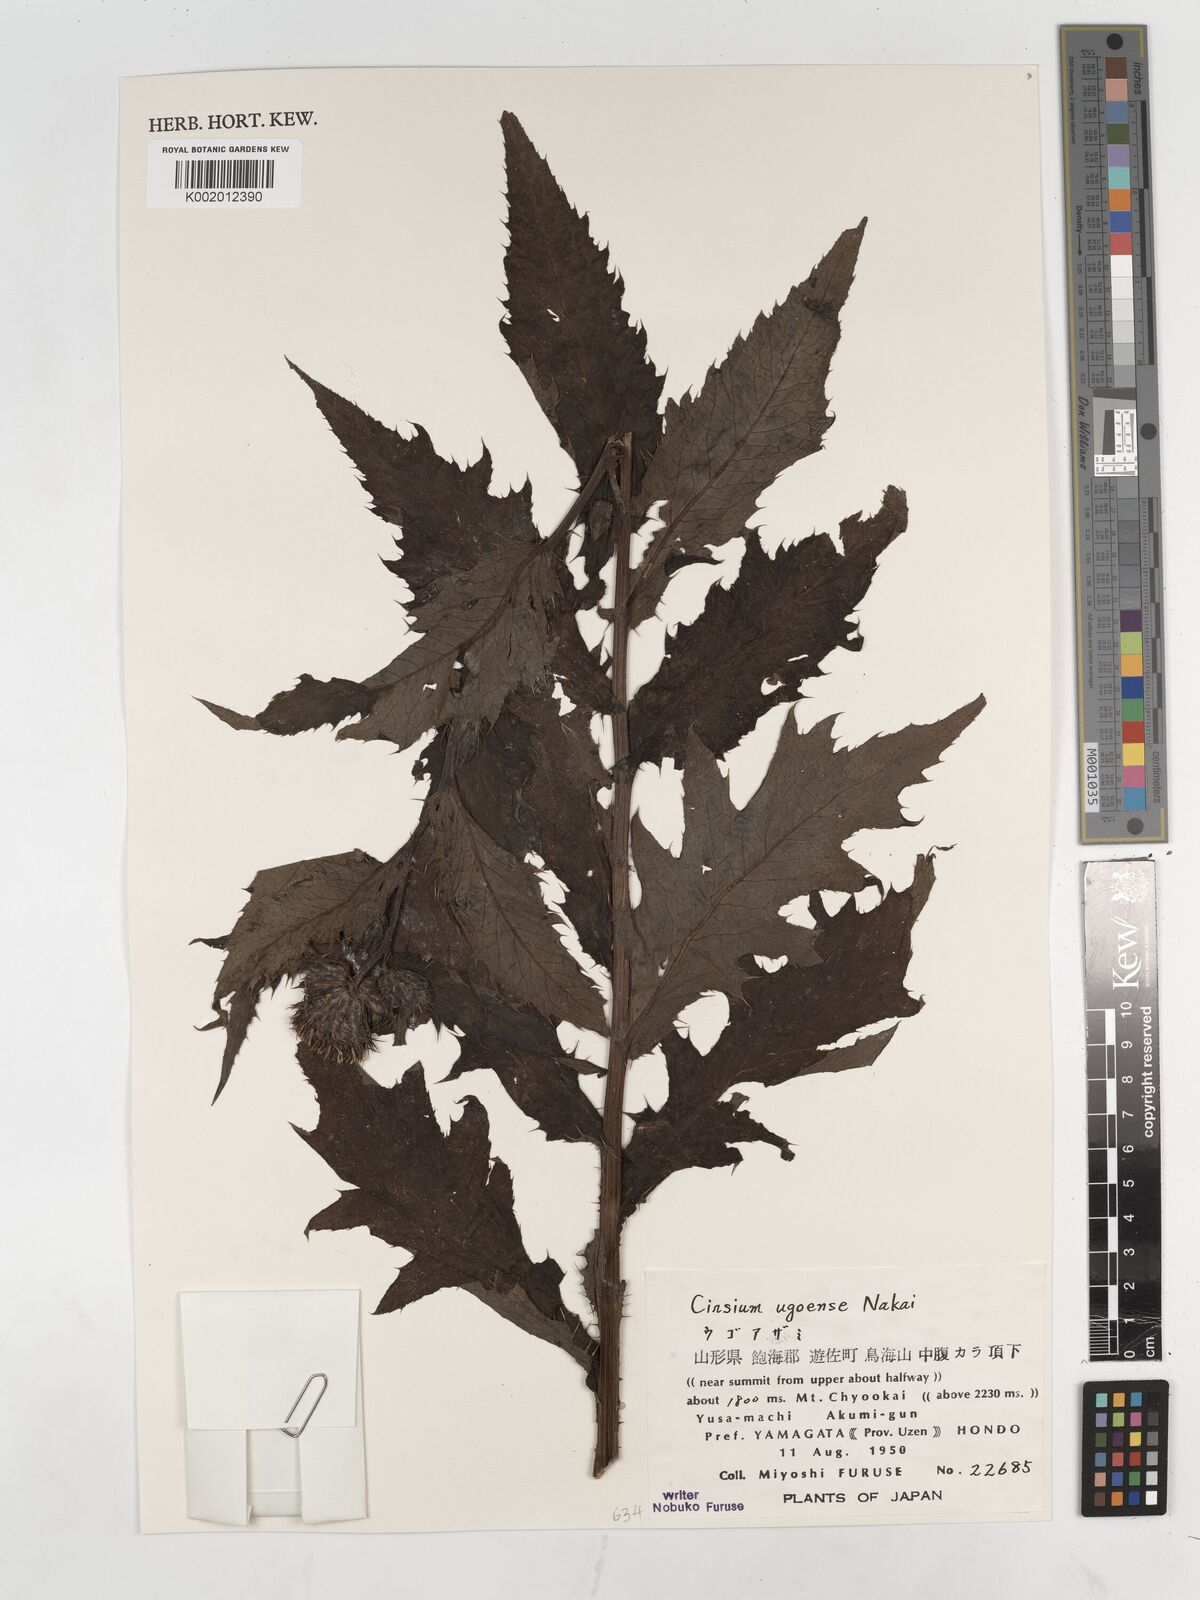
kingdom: Plantae
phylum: Tracheophyta
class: Magnoliopsida
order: Asterales
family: Asteraceae
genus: Cirsium
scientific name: Cirsium ugoense
